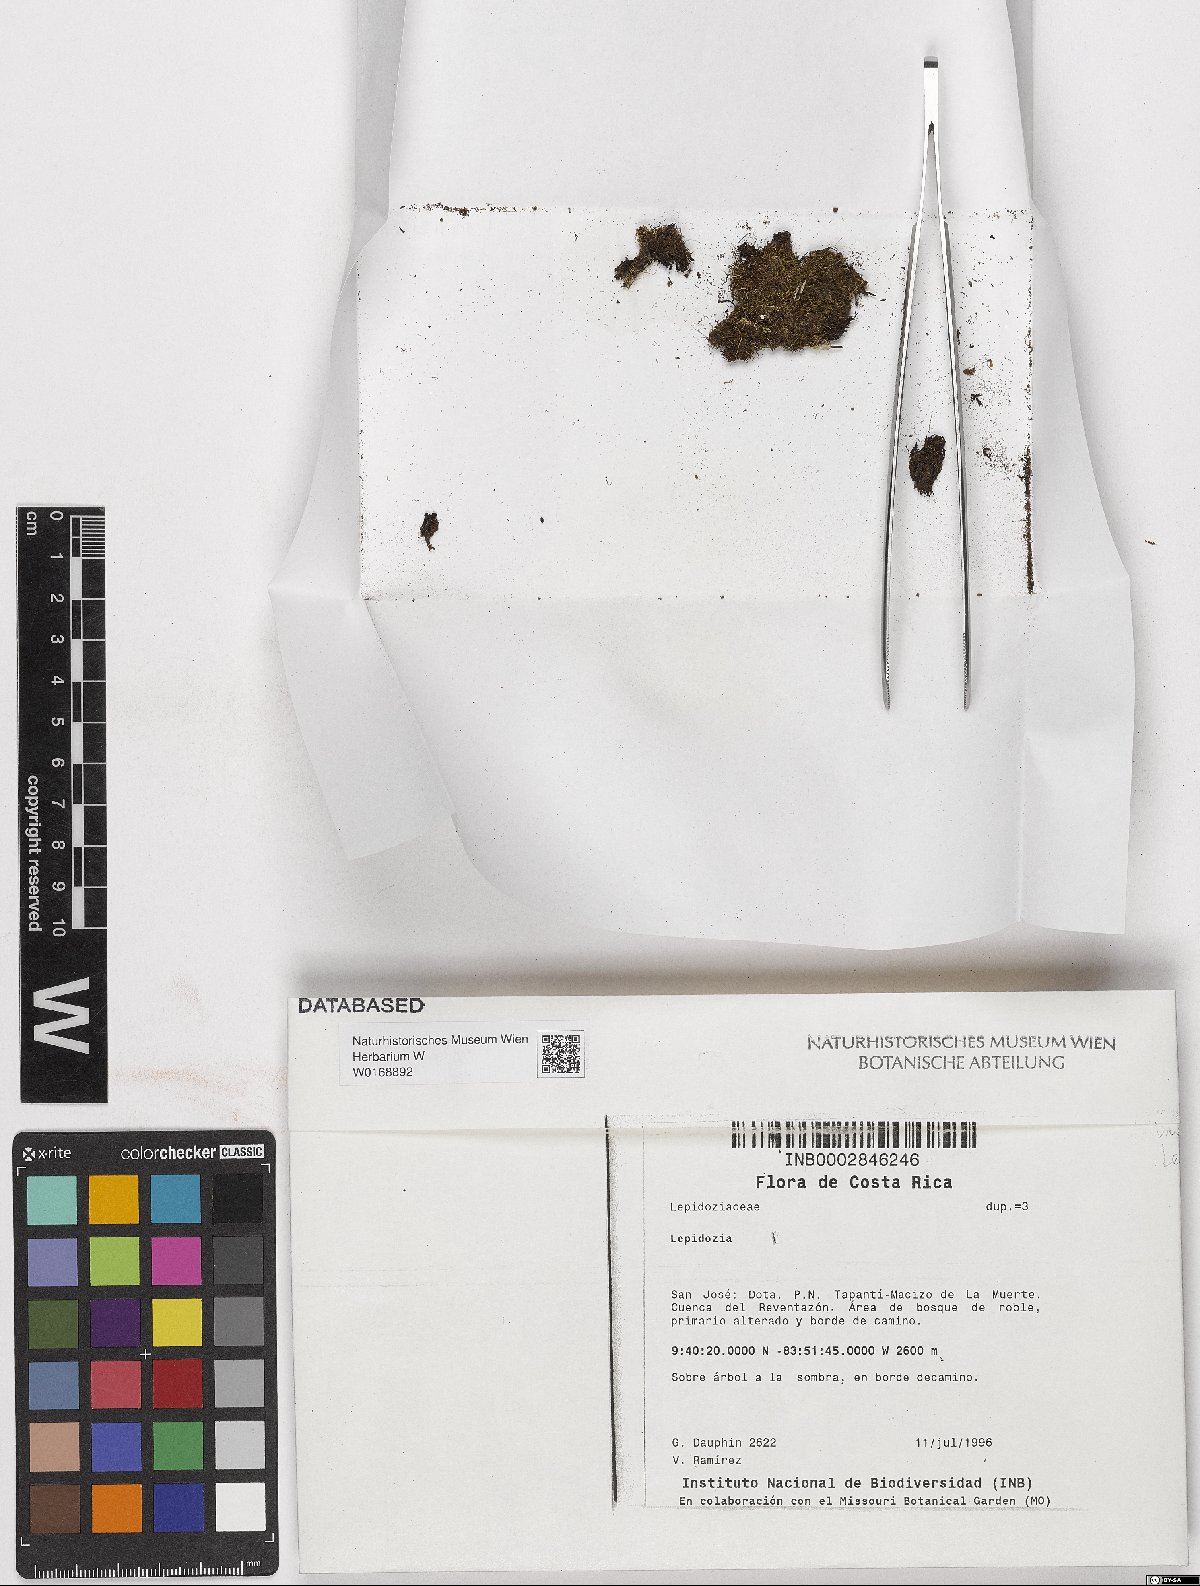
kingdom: Plantae
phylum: Marchantiophyta
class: Jungermanniopsida
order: Jungermanniales
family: Lepidoziaceae
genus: Lepidozia
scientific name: Lepidozia
